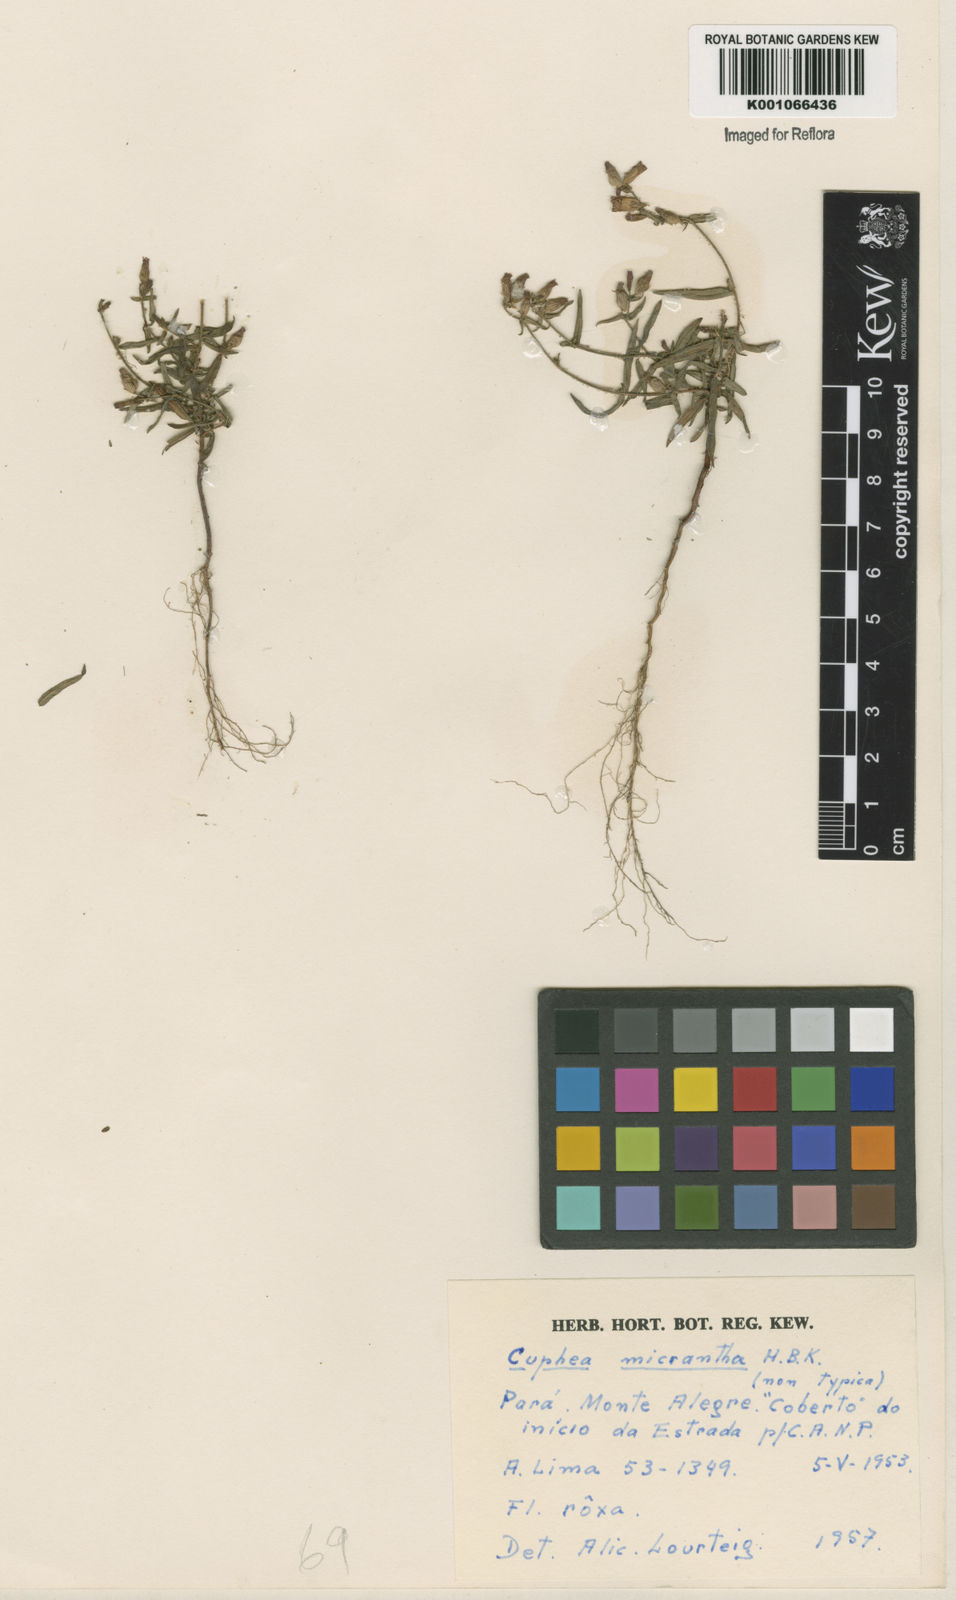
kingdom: Plantae
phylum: Tracheophyta
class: Magnoliopsida
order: Myrtales
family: Lythraceae
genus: Cuphea
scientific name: Cuphea micrantha
